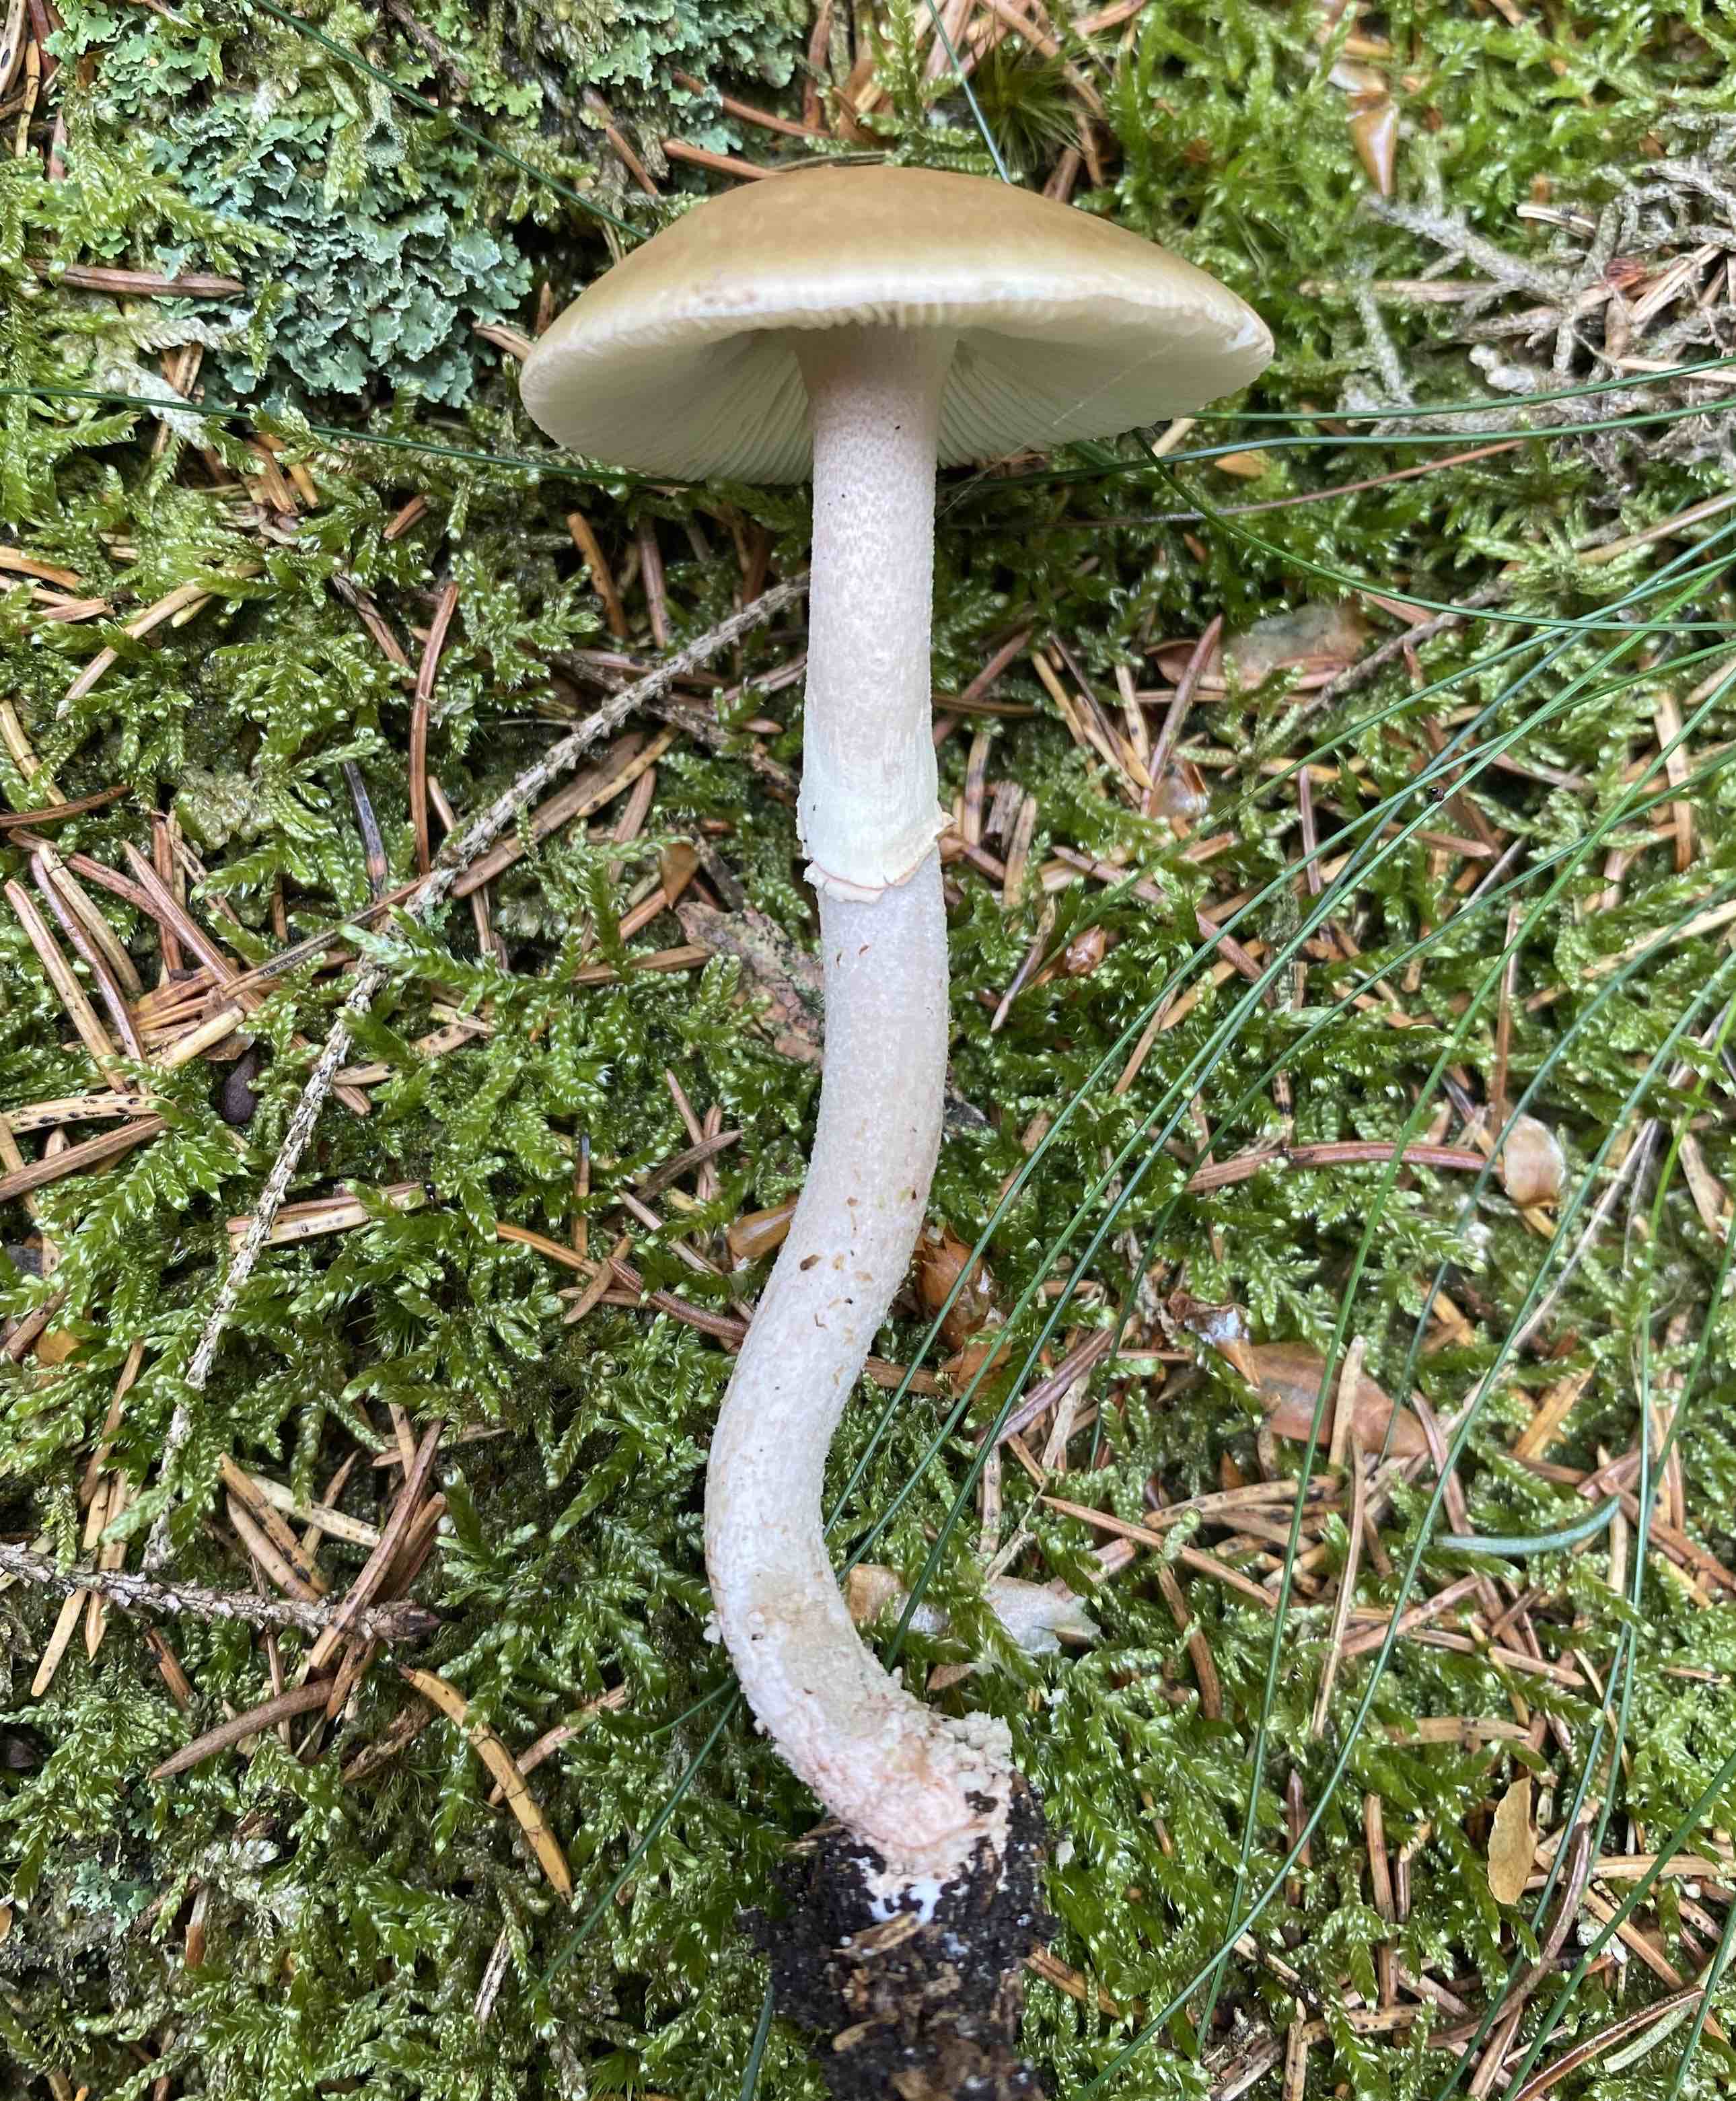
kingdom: Fungi
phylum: Basidiomycota
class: Agaricomycetes
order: Agaricales
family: Amanitaceae
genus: Amanita
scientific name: Amanita rubescens
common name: rødmende fluesvamp
